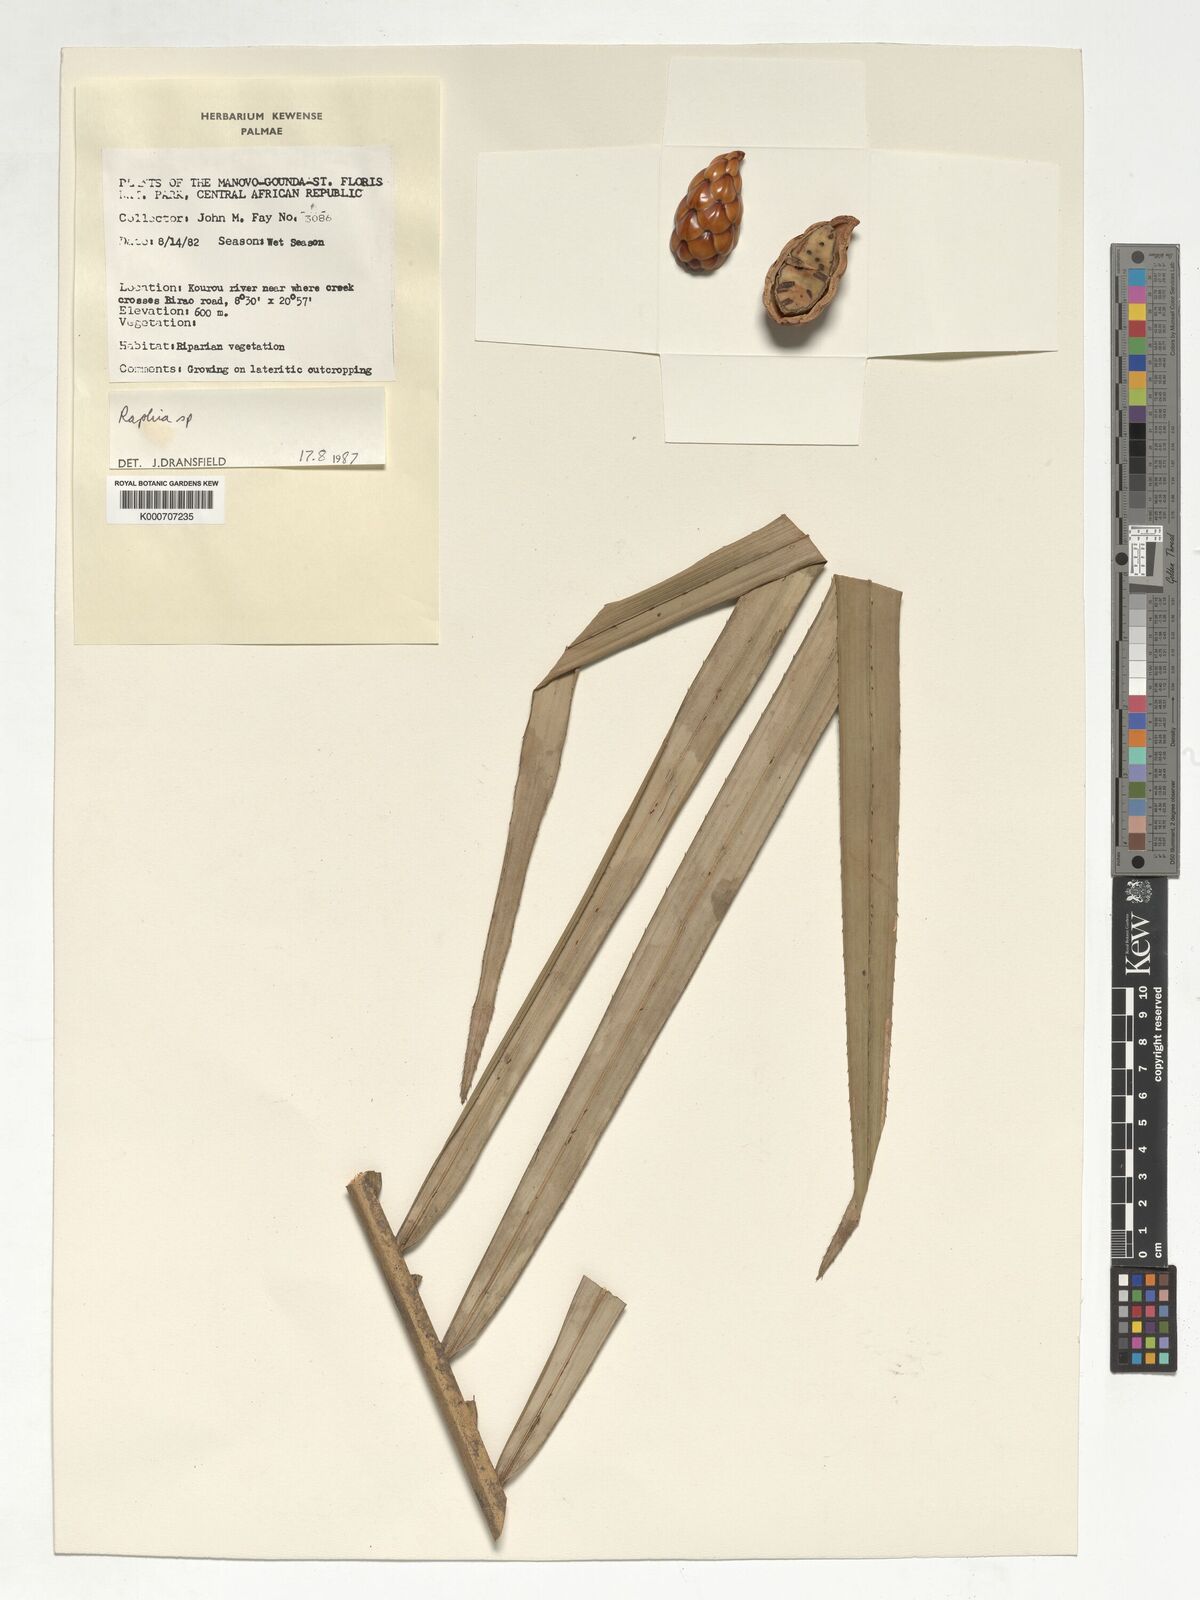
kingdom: Plantae
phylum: Tracheophyta
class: Liliopsida
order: Arecales
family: Arecaceae
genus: Raphia
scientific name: Raphia
